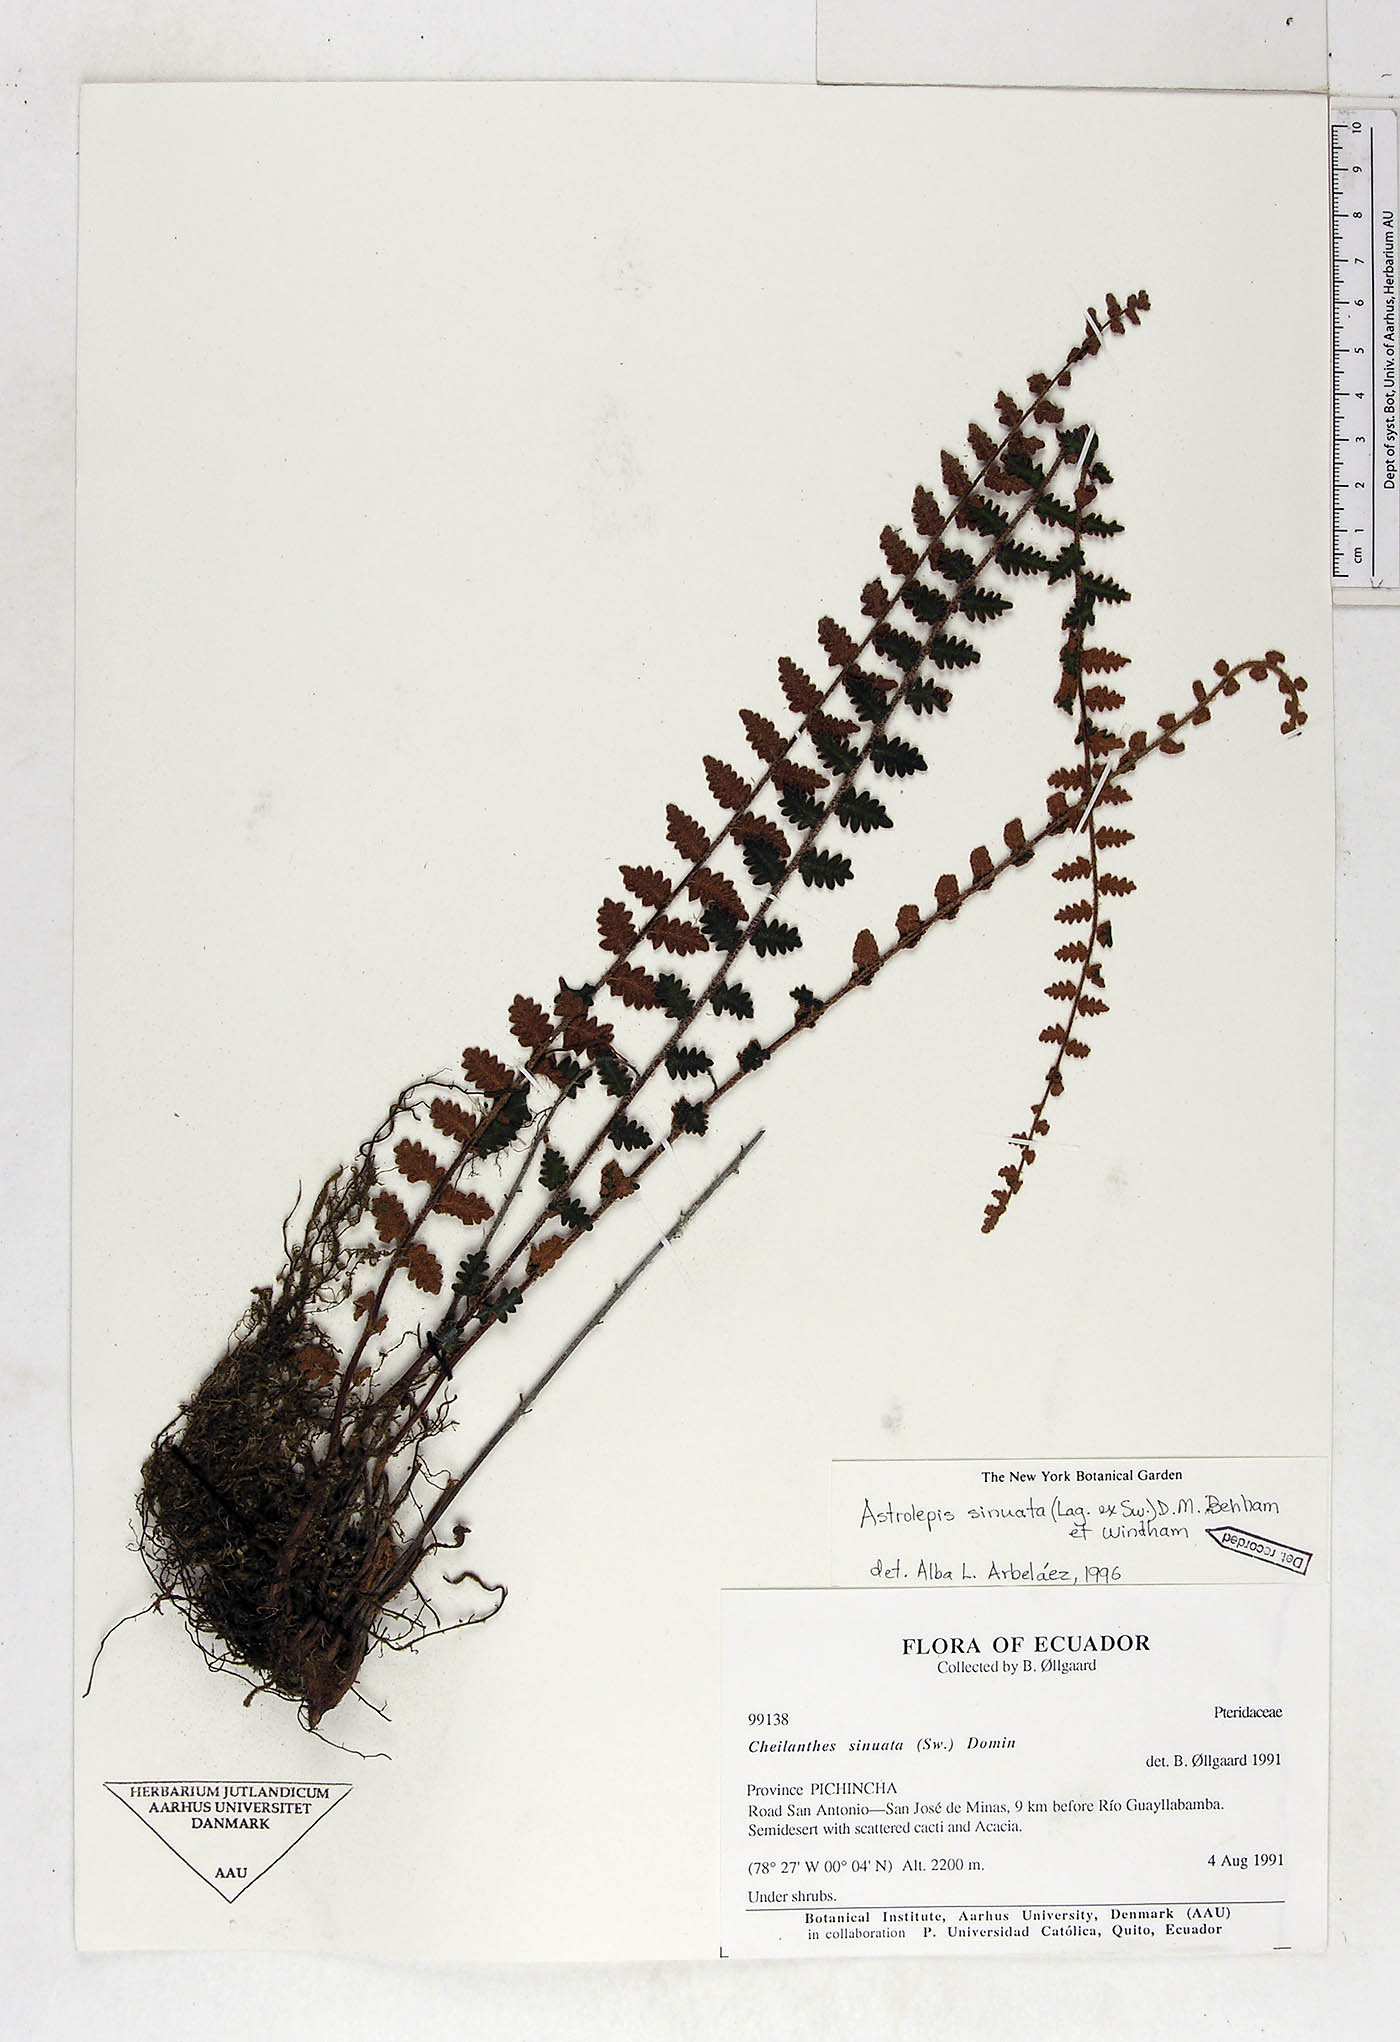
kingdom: Plantae
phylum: Tracheophyta
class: Polypodiopsida
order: Polypodiales
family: Pteridaceae
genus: Astrolepis
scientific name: Astrolepis sinuata
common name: Wavy scaly cloakfern
